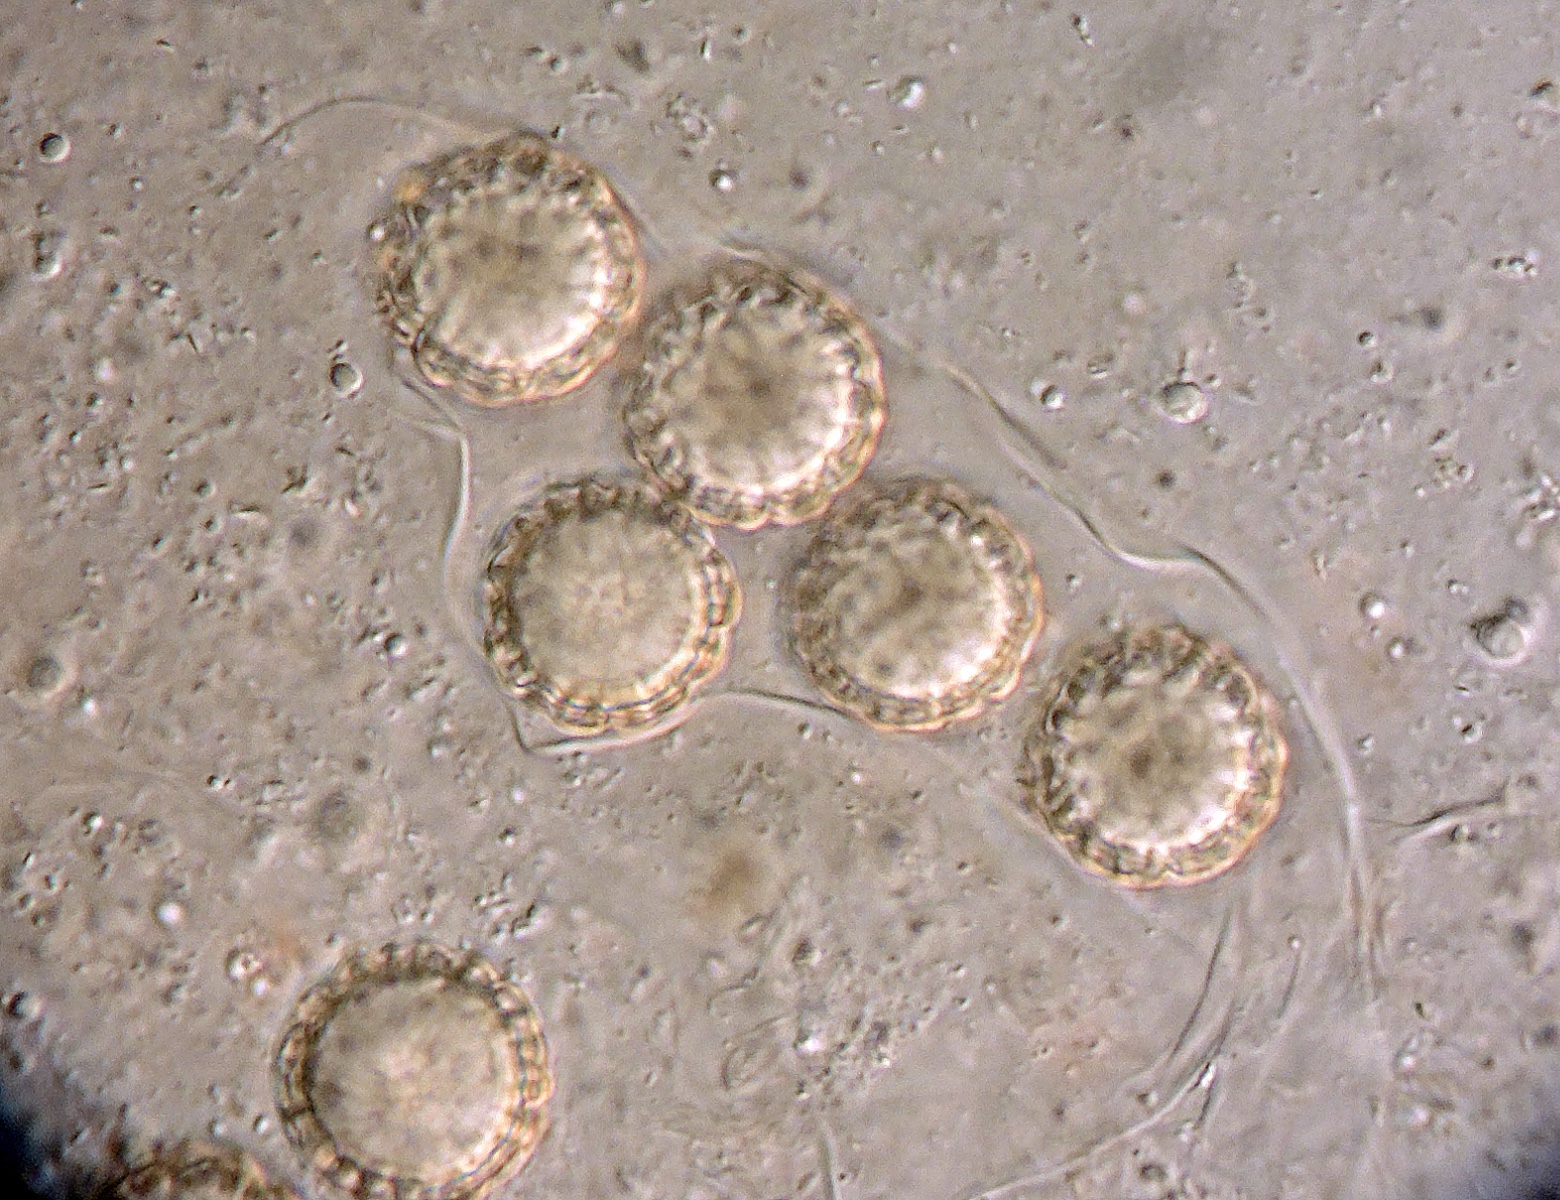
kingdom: Fungi
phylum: Ascomycota
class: Pezizomycetes
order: Pezizales
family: Pezizaceae
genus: Pachyphlodes
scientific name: Pachyphlodes conglomerata
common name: glat kratertrøffel
